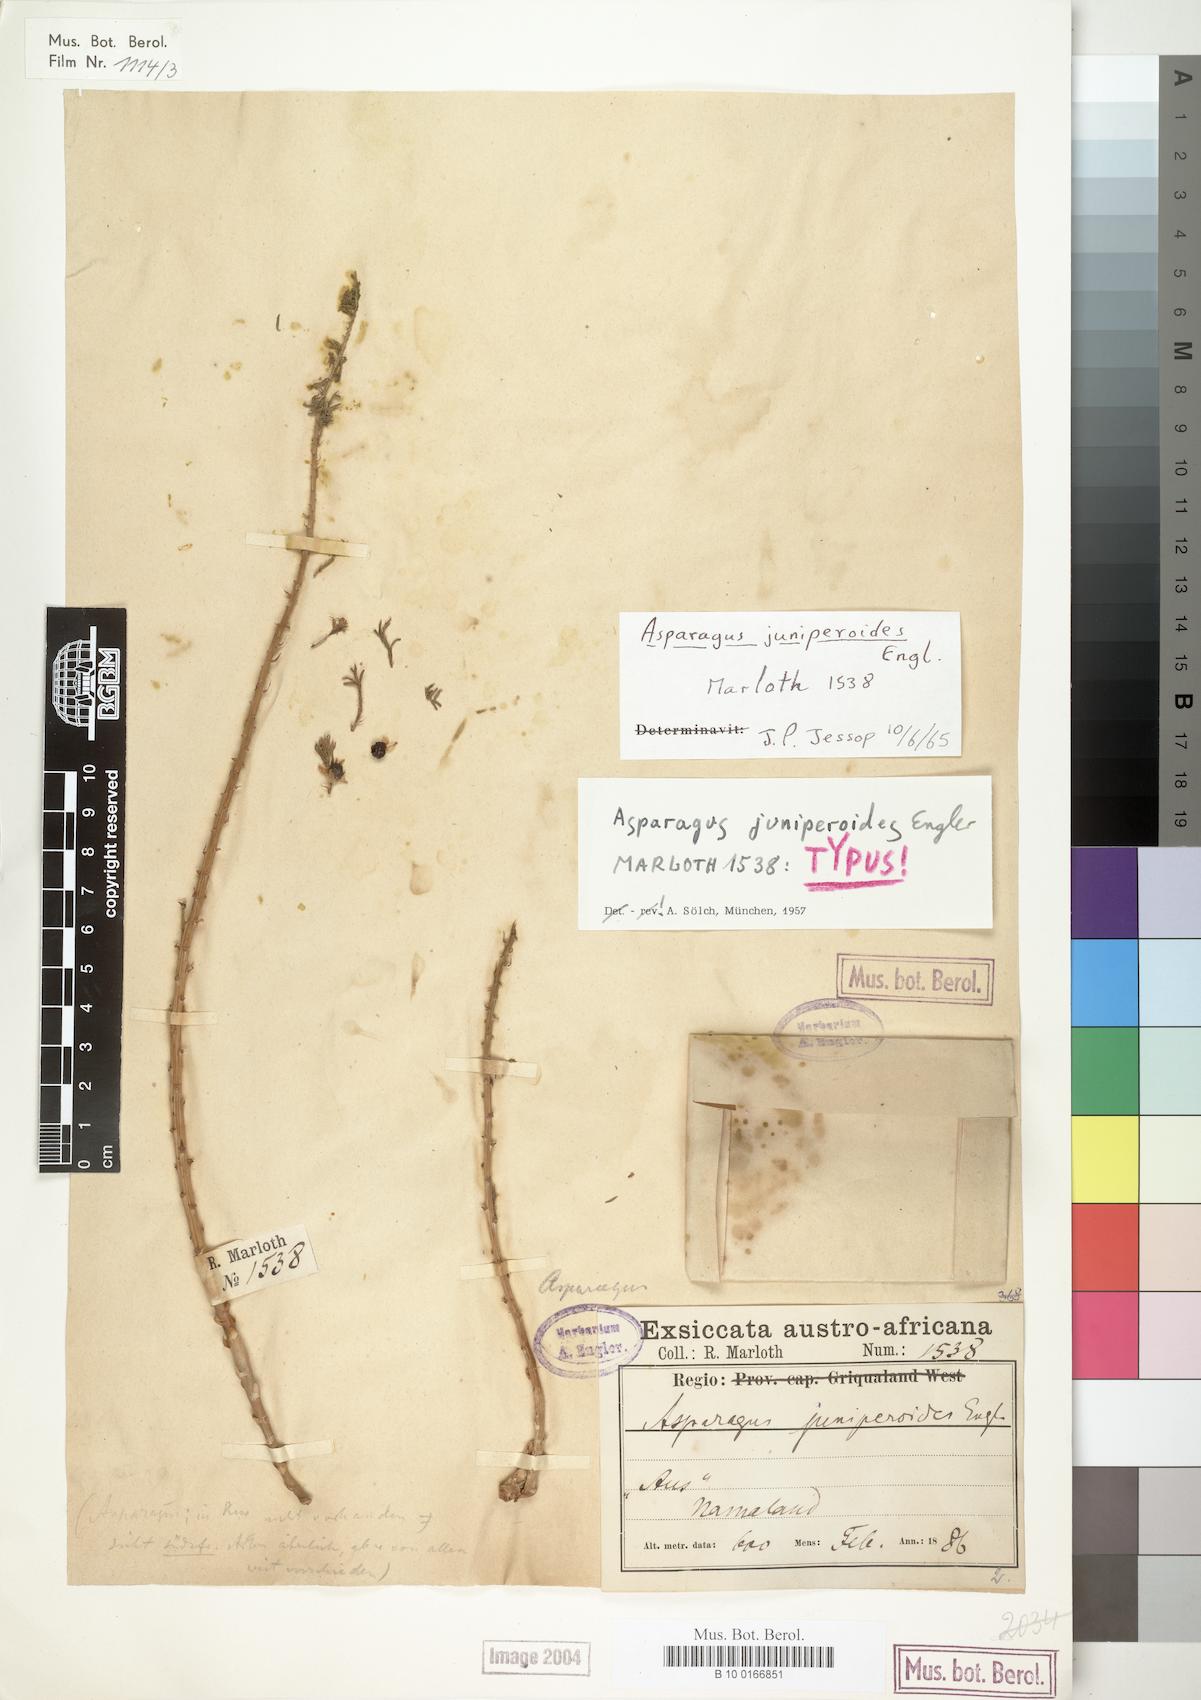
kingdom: Plantae
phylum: Tracheophyta
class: Liliopsida
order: Asparagales
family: Asparagaceae
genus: Asparagus
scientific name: Asparagus juniperoides
